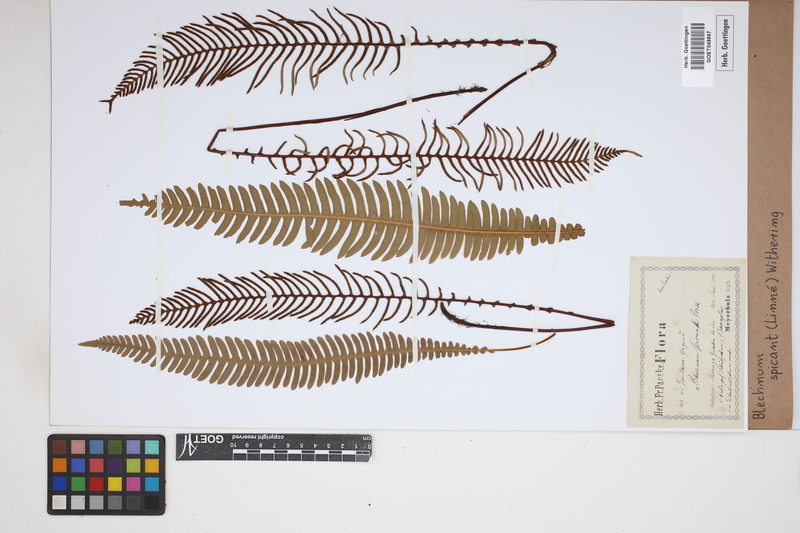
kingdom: Plantae
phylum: Tracheophyta
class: Polypodiopsida
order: Polypodiales
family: Blechnaceae
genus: Struthiopteris
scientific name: Struthiopteris spicant
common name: Deer fern
